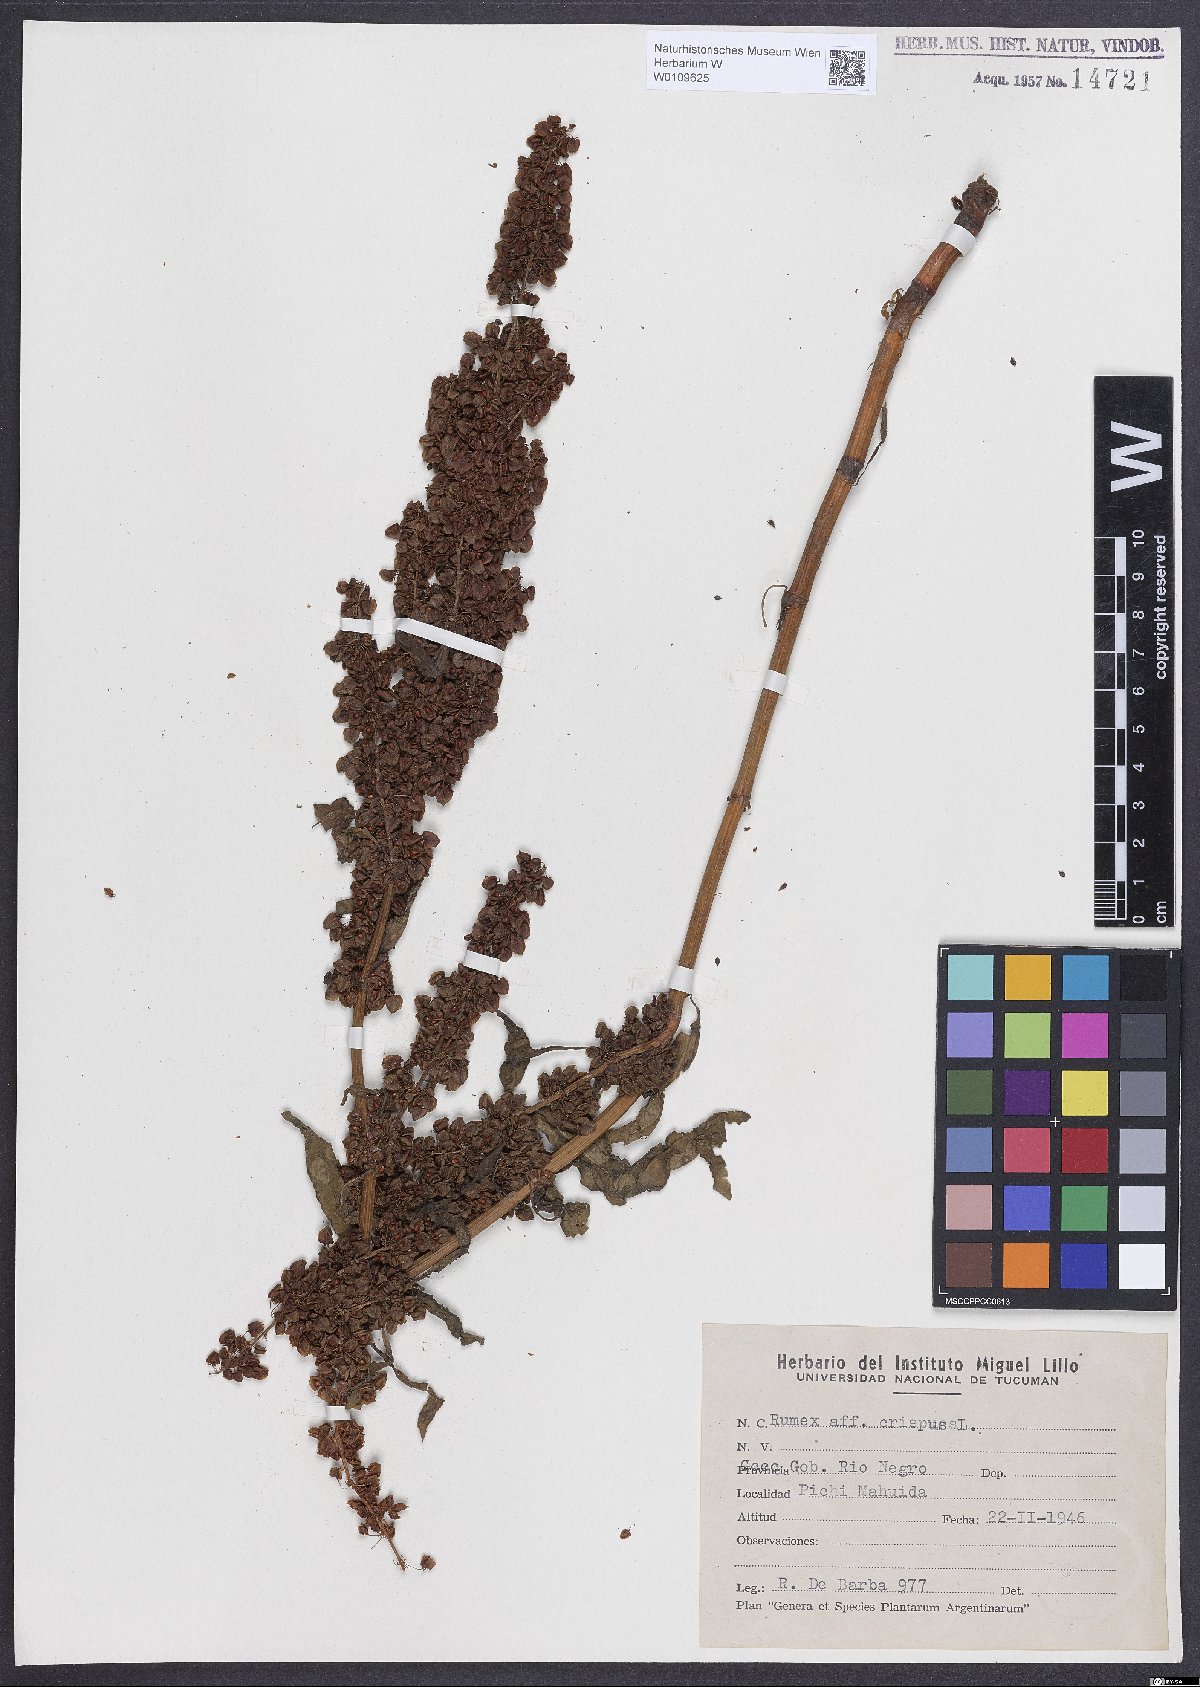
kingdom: Plantae
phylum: Tracheophyta
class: Magnoliopsida
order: Caryophyllales
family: Polygonaceae
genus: Rumex
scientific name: Rumex crispus
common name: Curled dock
